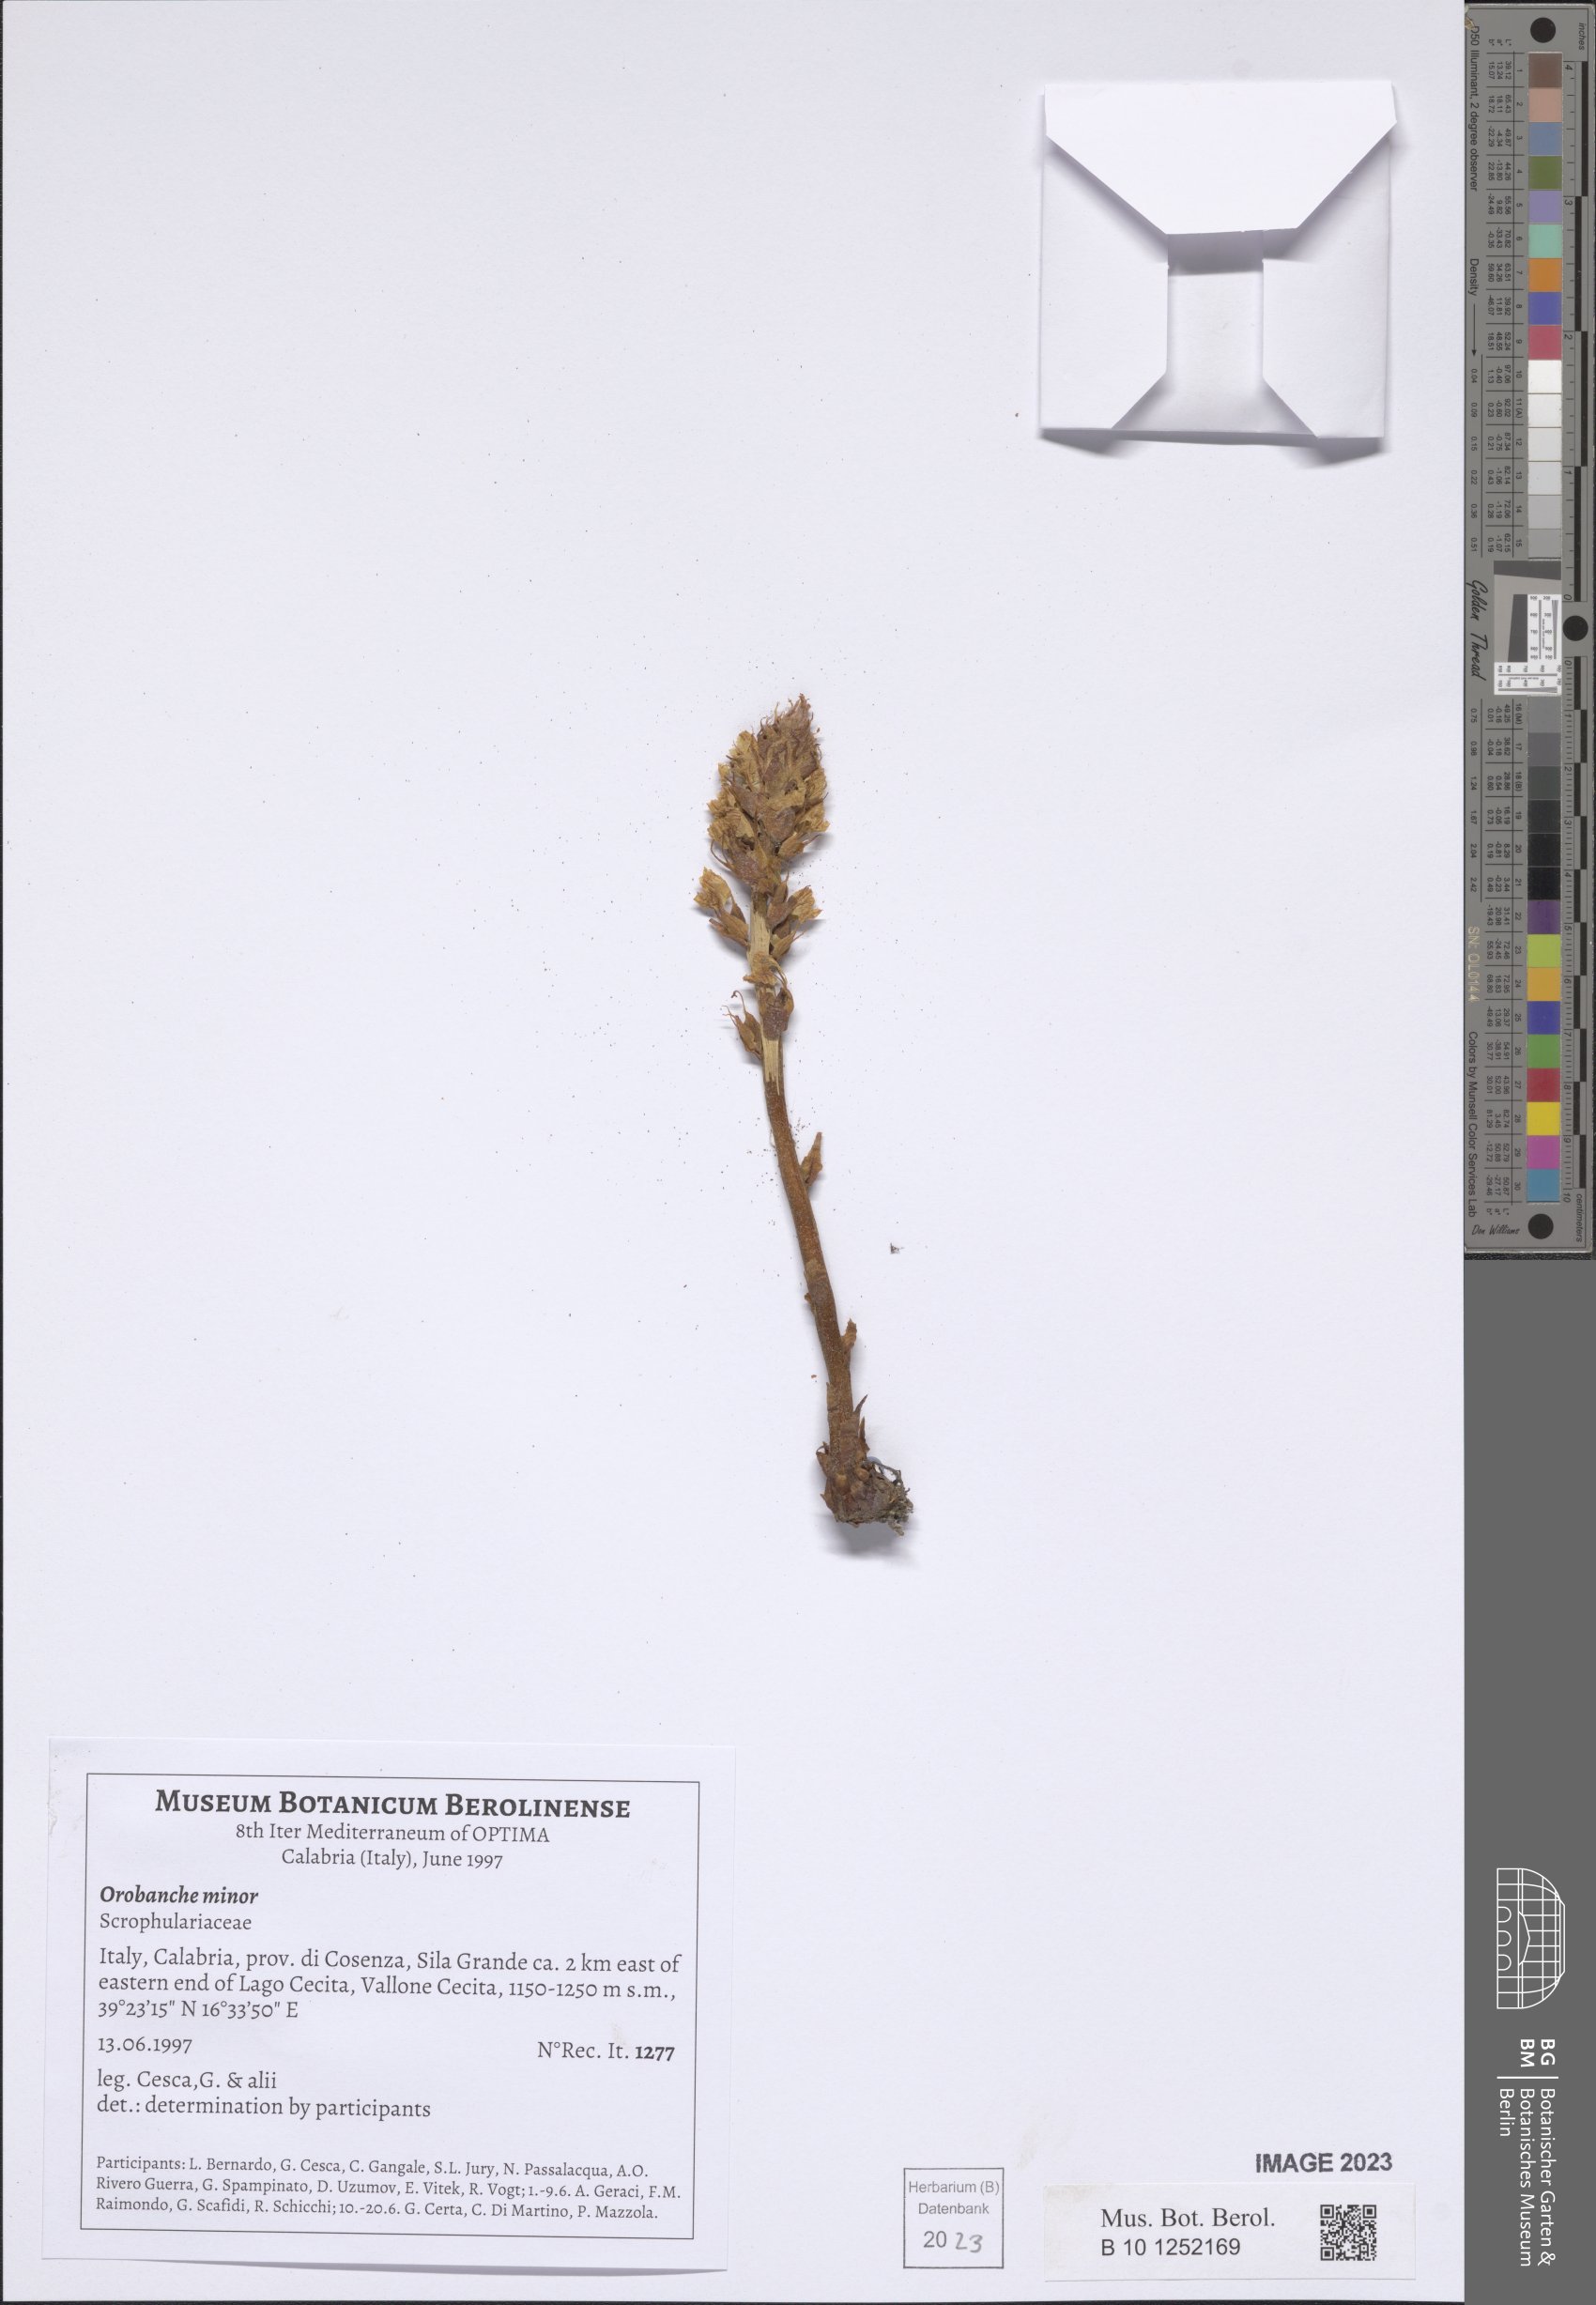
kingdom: Plantae
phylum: Tracheophyta
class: Magnoliopsida
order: Lamiales
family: Orobanchaceae
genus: Orobanche
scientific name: Orobanche minor
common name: Common broomrape
